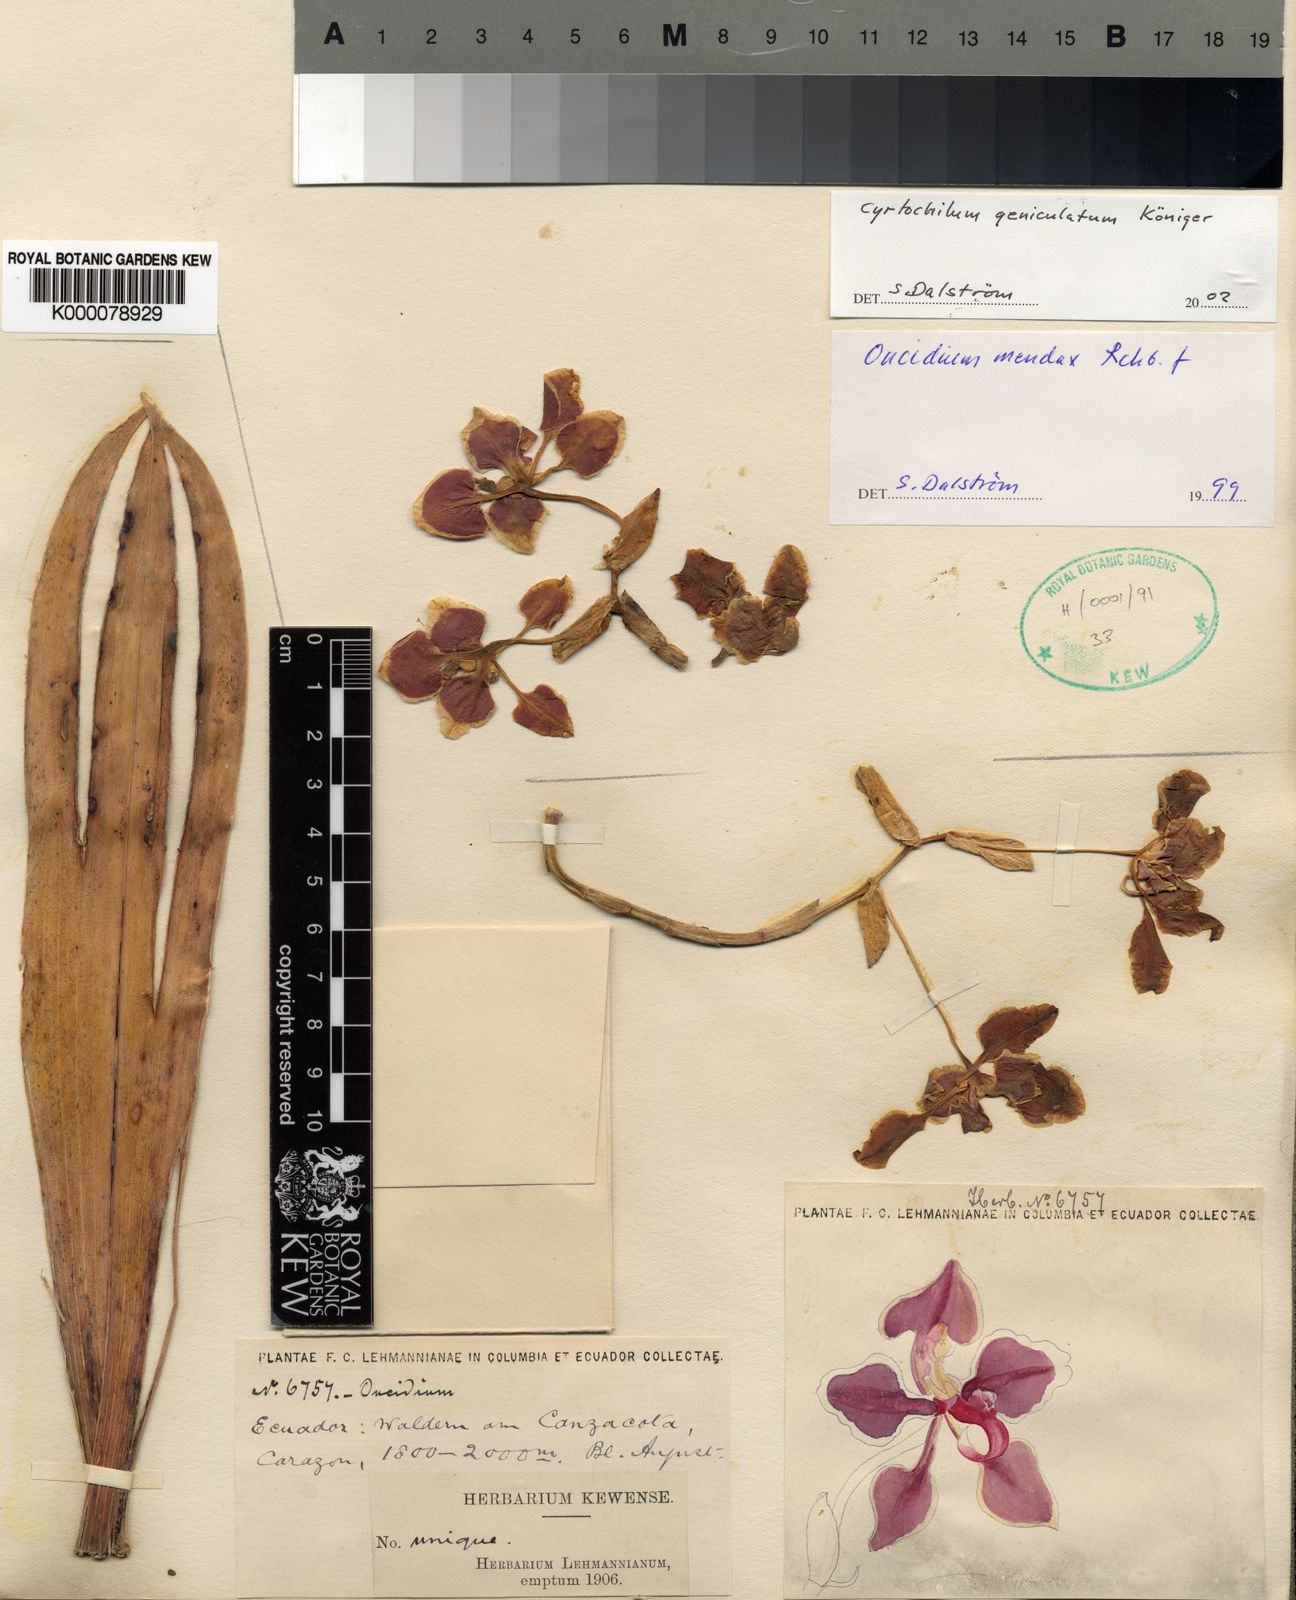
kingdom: Plantae
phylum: Tracheophyta
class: Liliopsida
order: Asparagales
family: Orchidaceae
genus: Oncidium
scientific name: Oncidium
